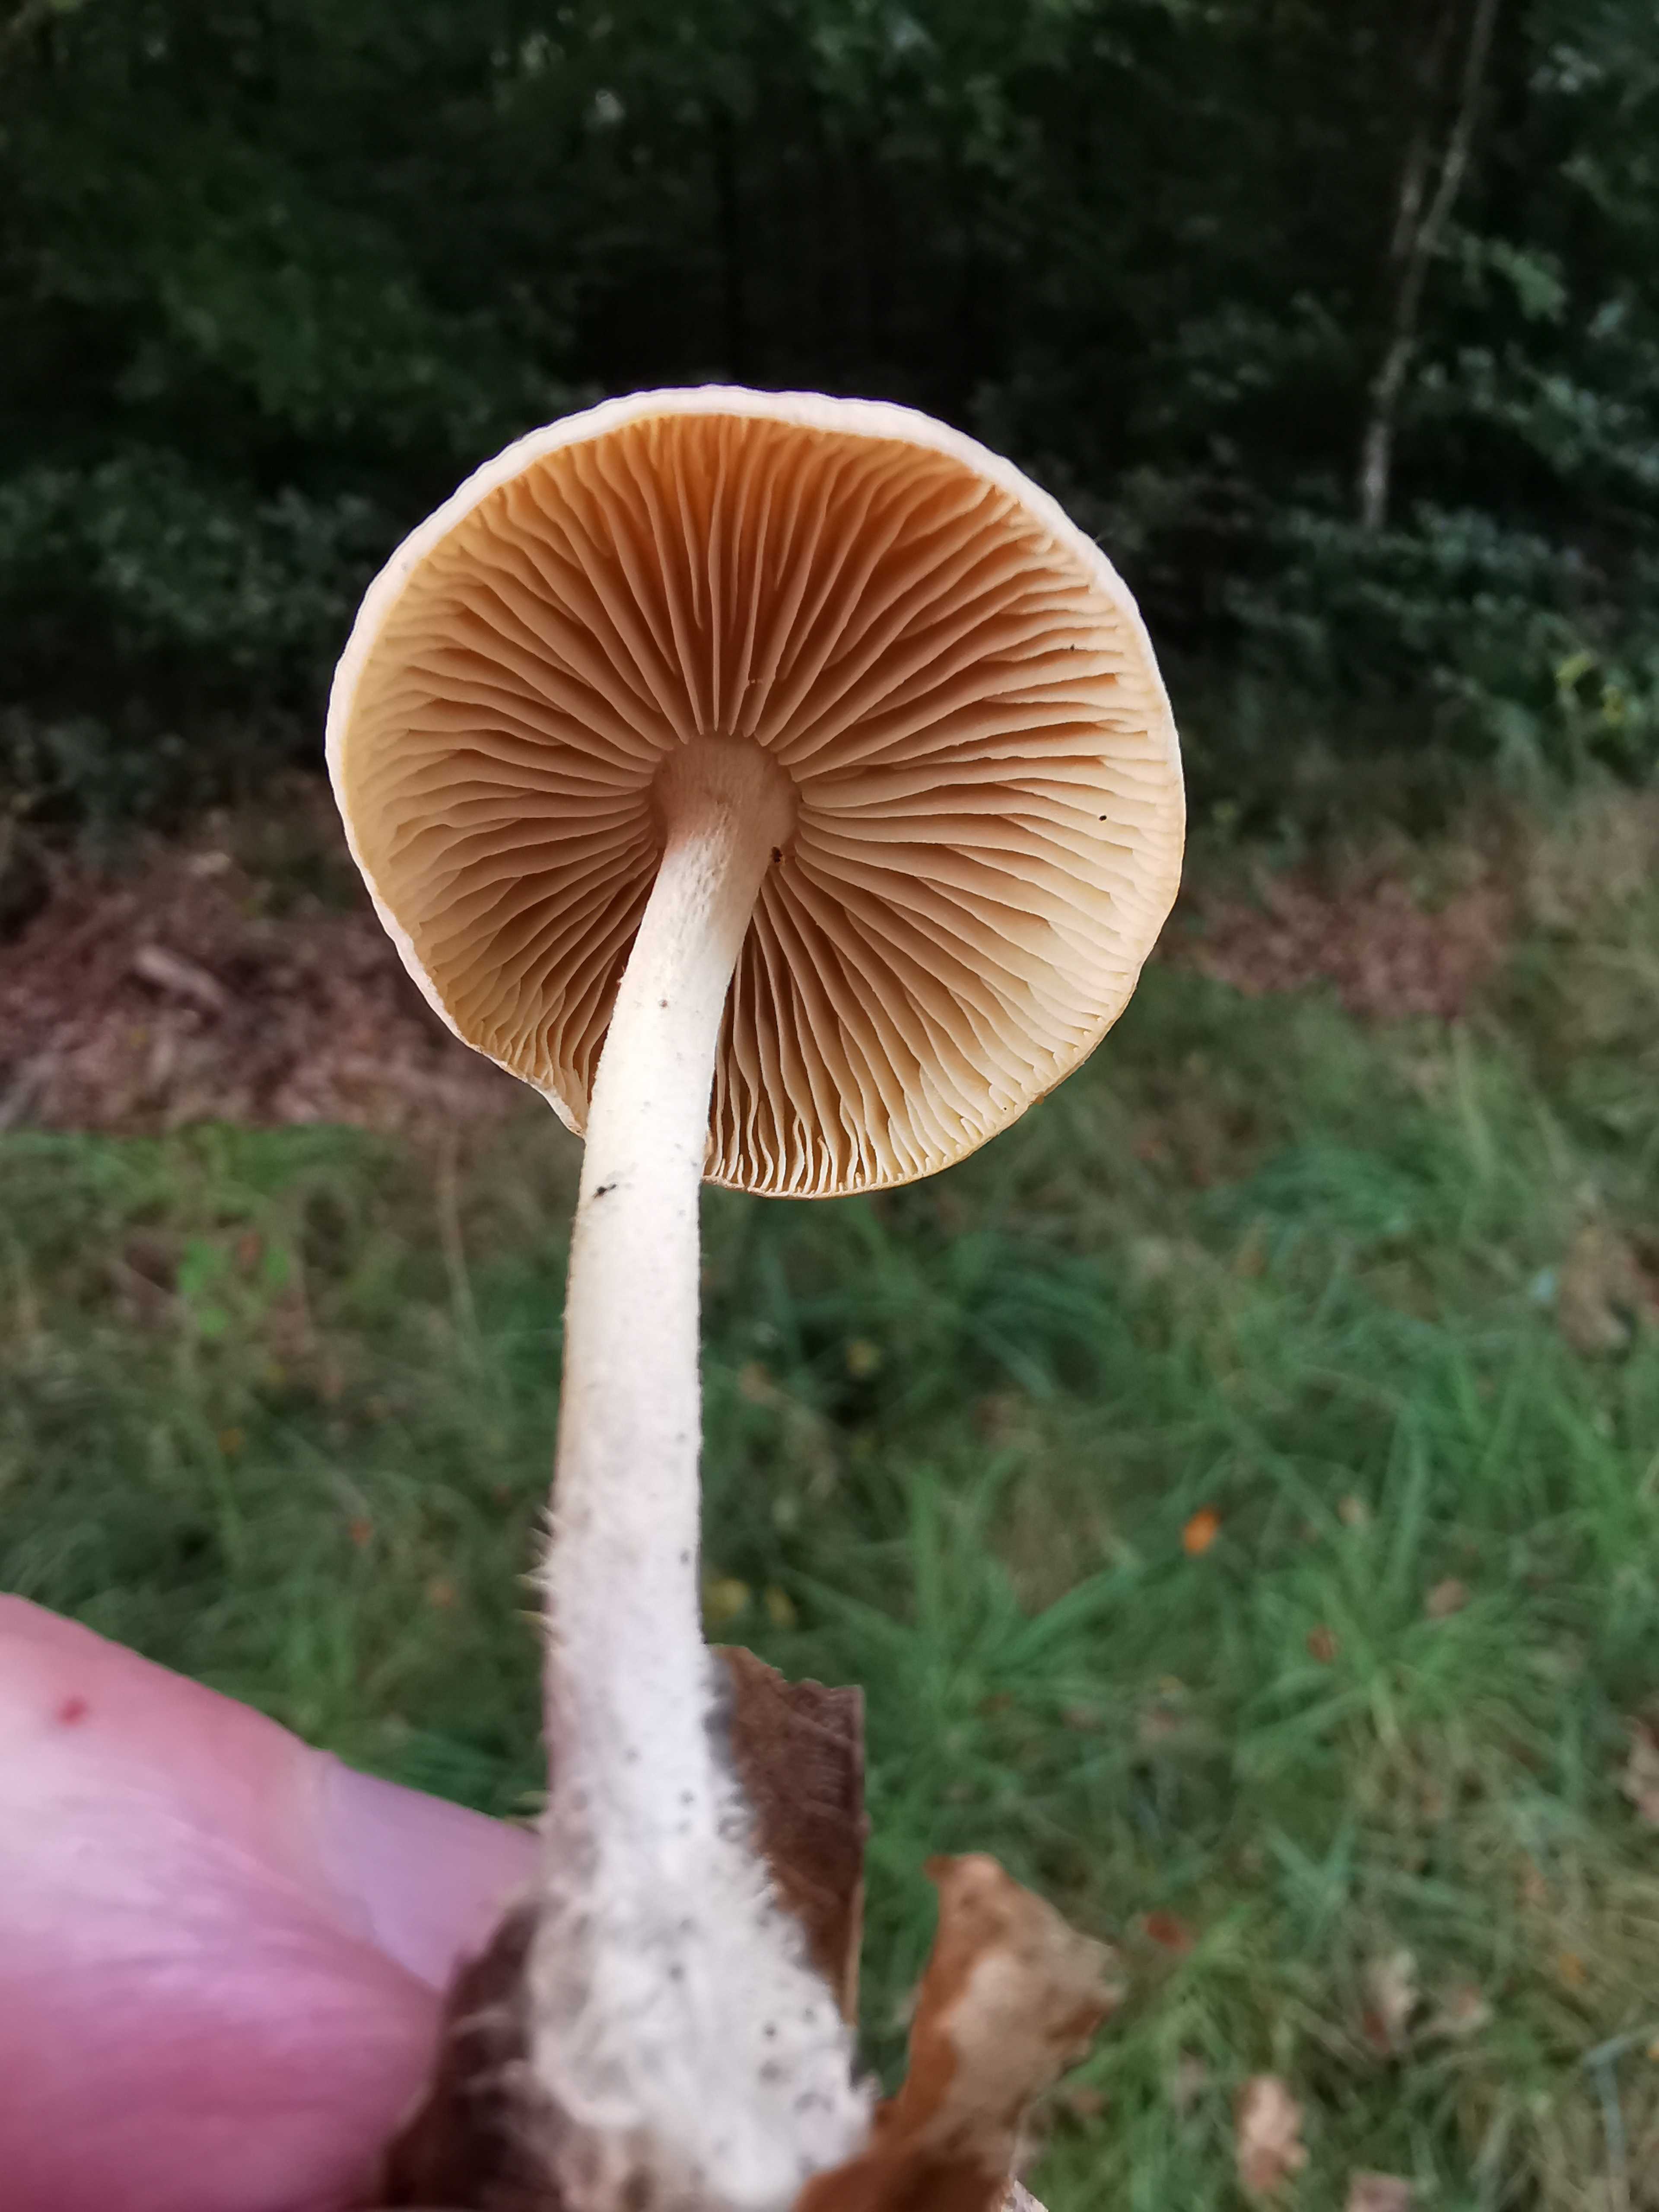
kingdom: Fungi
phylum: Basidiomycota
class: Agaricomycetes
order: Agaricales
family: Omphalotaceae
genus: Collybiopsis
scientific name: Collybiopsis peronata
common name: bestøvlet fladhat
